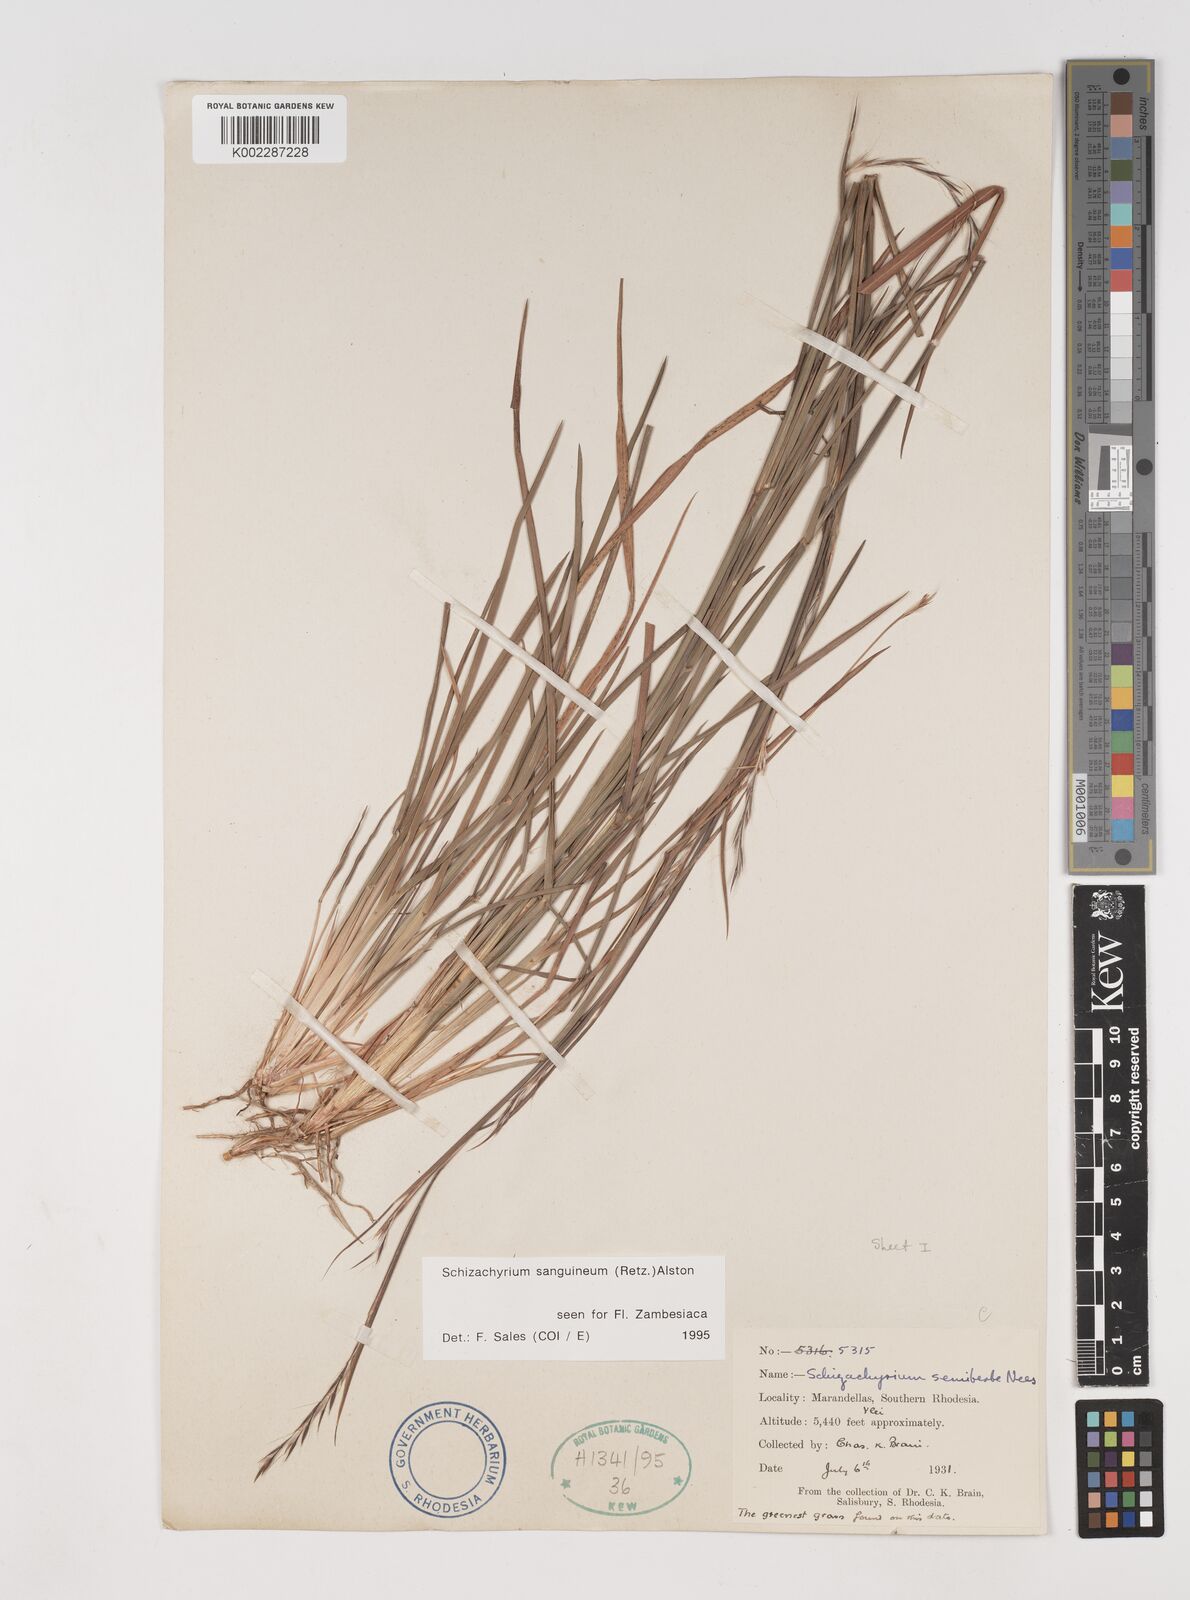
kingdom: Plantae
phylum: Tracheophyta
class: Liliopsida
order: Poales
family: Poaceae
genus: Schizachyrium
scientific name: Schizachyrium sanguineum
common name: Crimson bluestem
